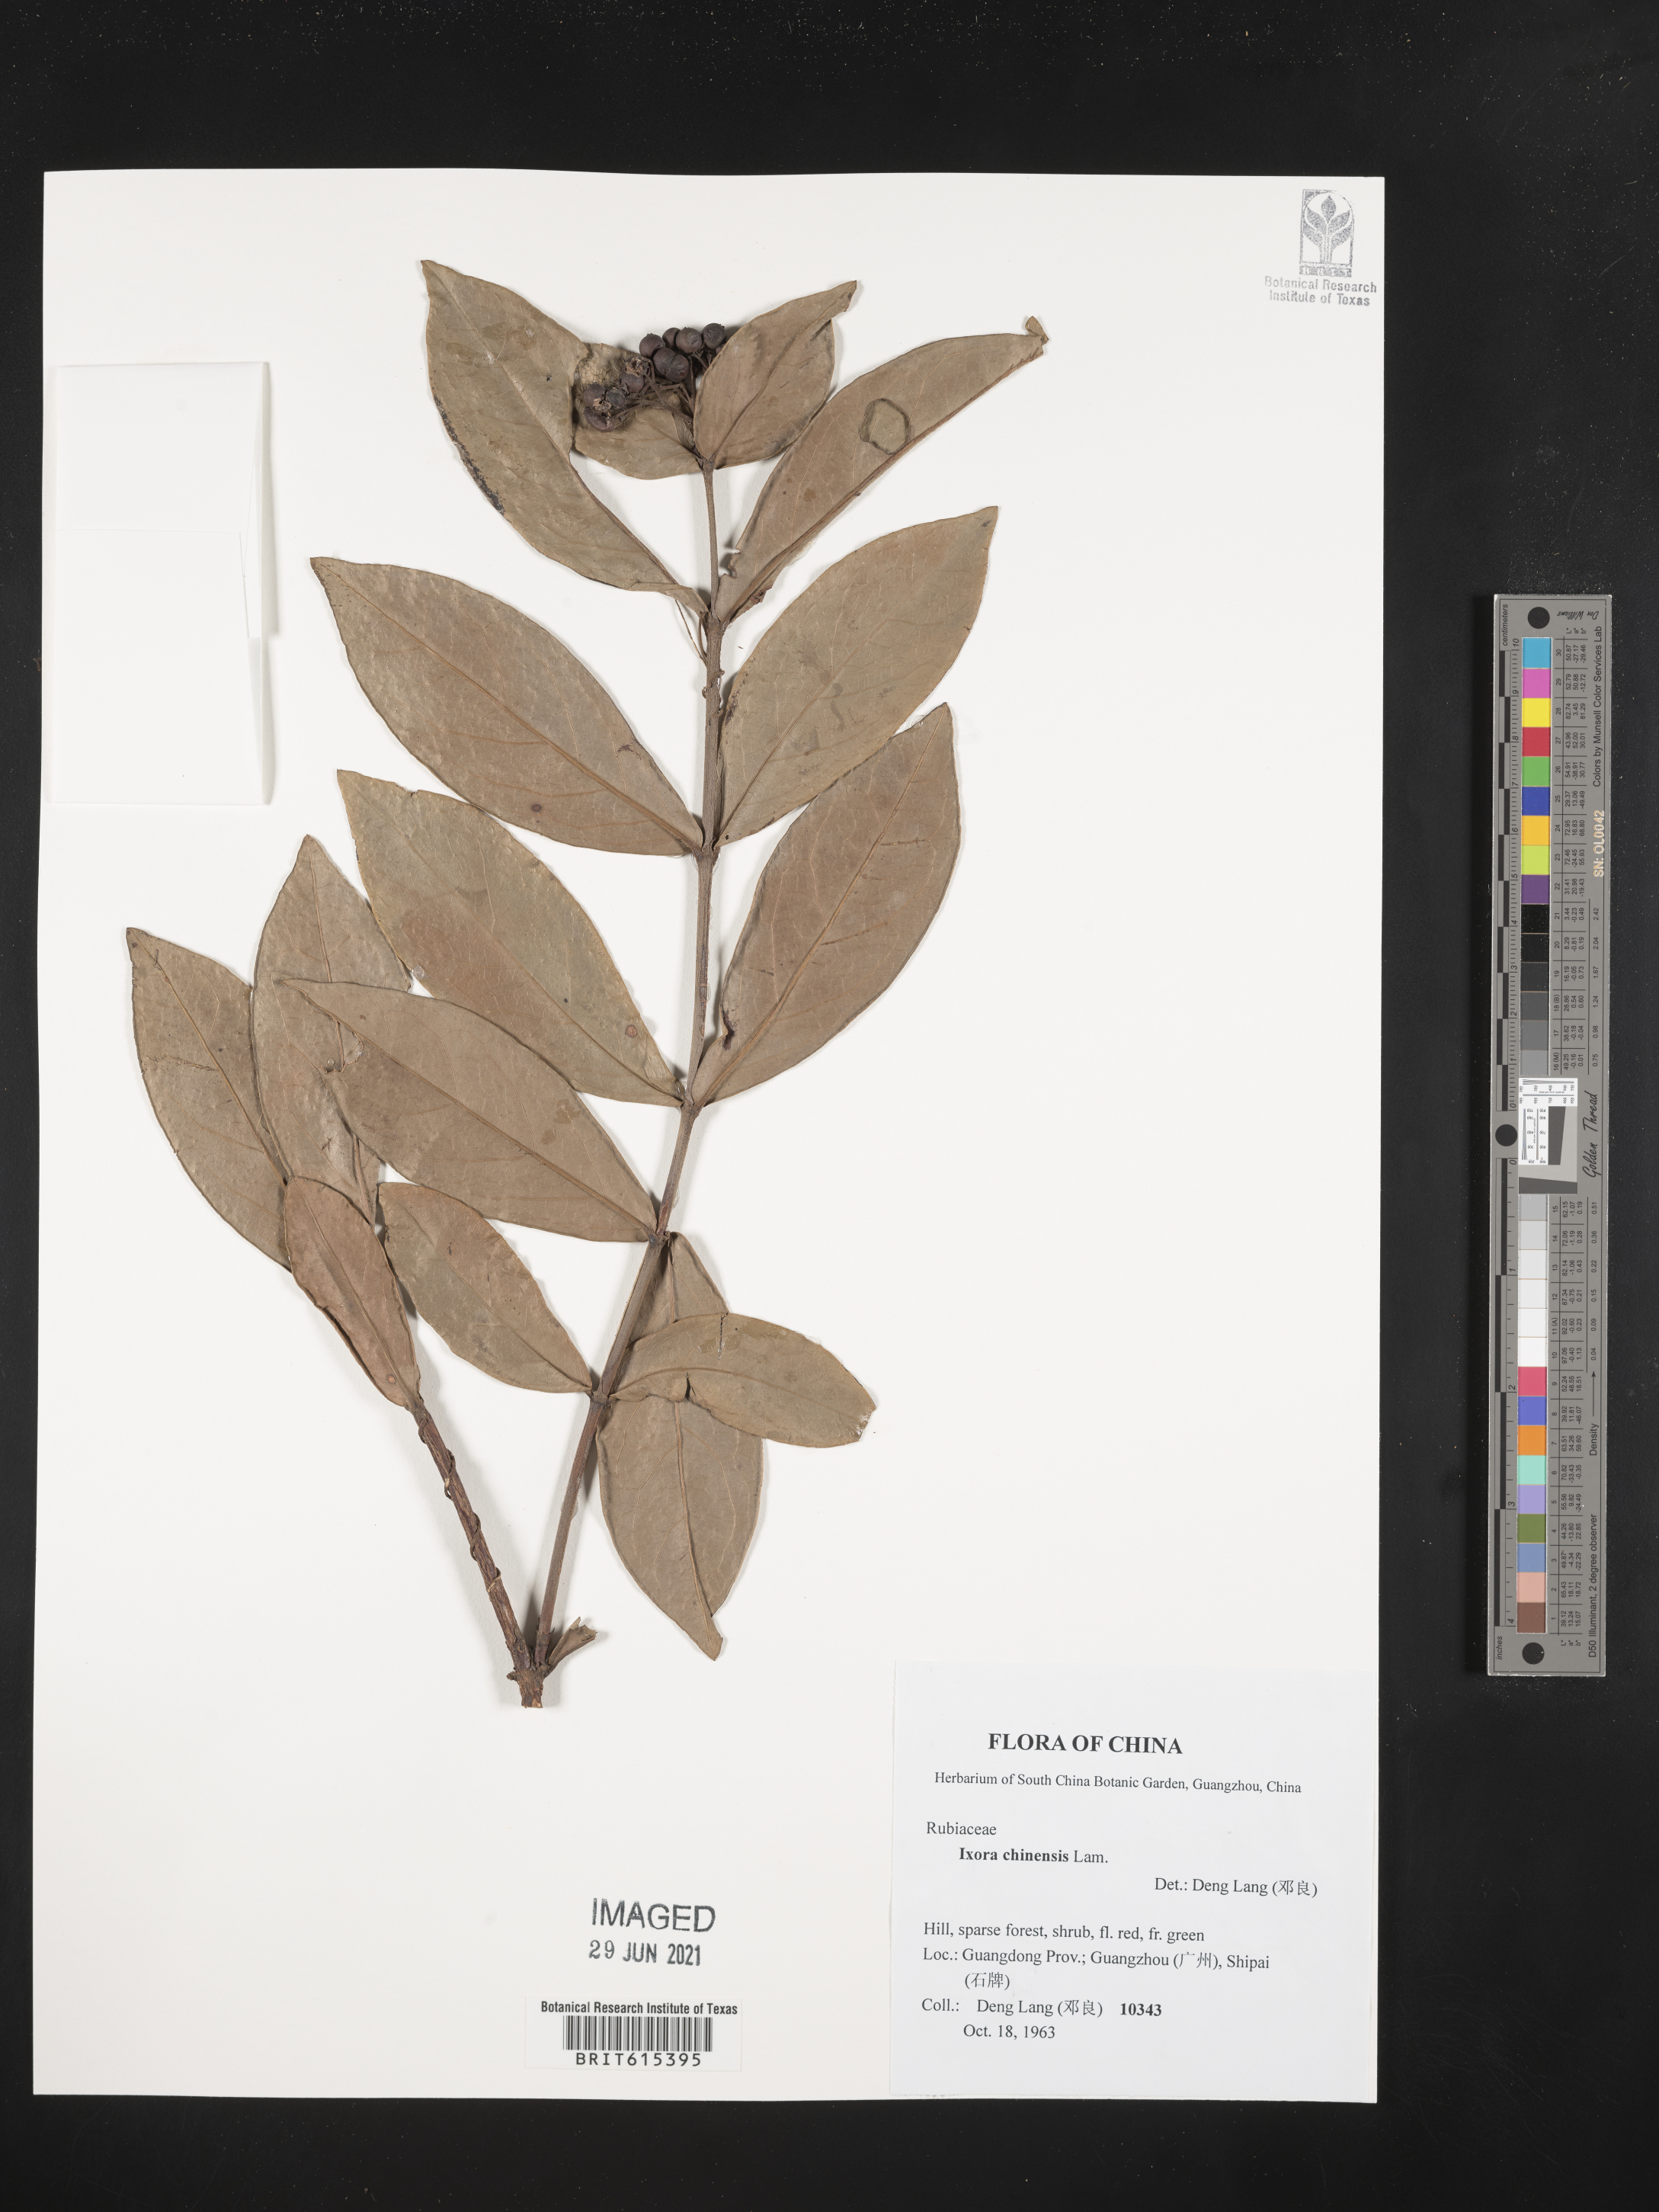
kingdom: Plantae
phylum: Tracheophyta
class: Magnoliopsida
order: Gentianales
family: Rubiaceae
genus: Ixora
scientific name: Ixora chinensis
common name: Chinese ixora
